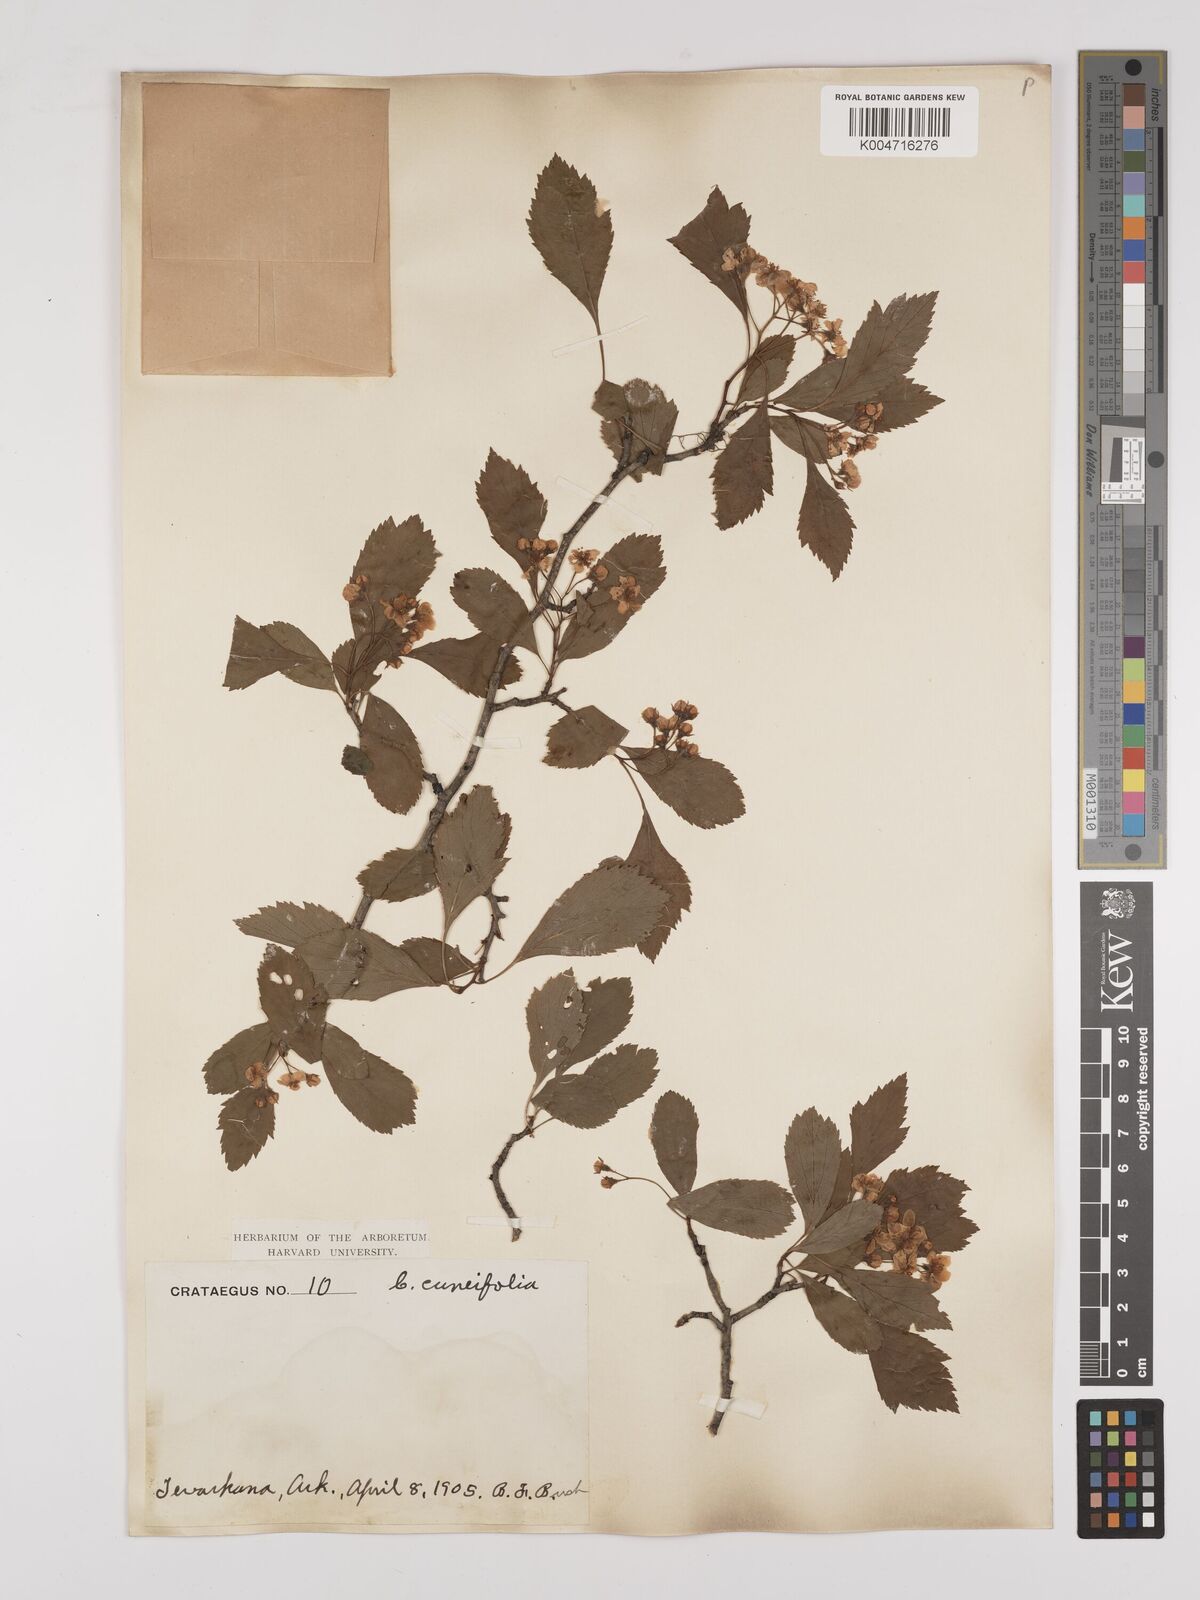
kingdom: Plantae
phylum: Tracheophyta
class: Magnoliopsida
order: Rosales
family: Rosaceae
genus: Crataegus
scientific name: Crataegus punctata
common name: Dotted hawthorn
